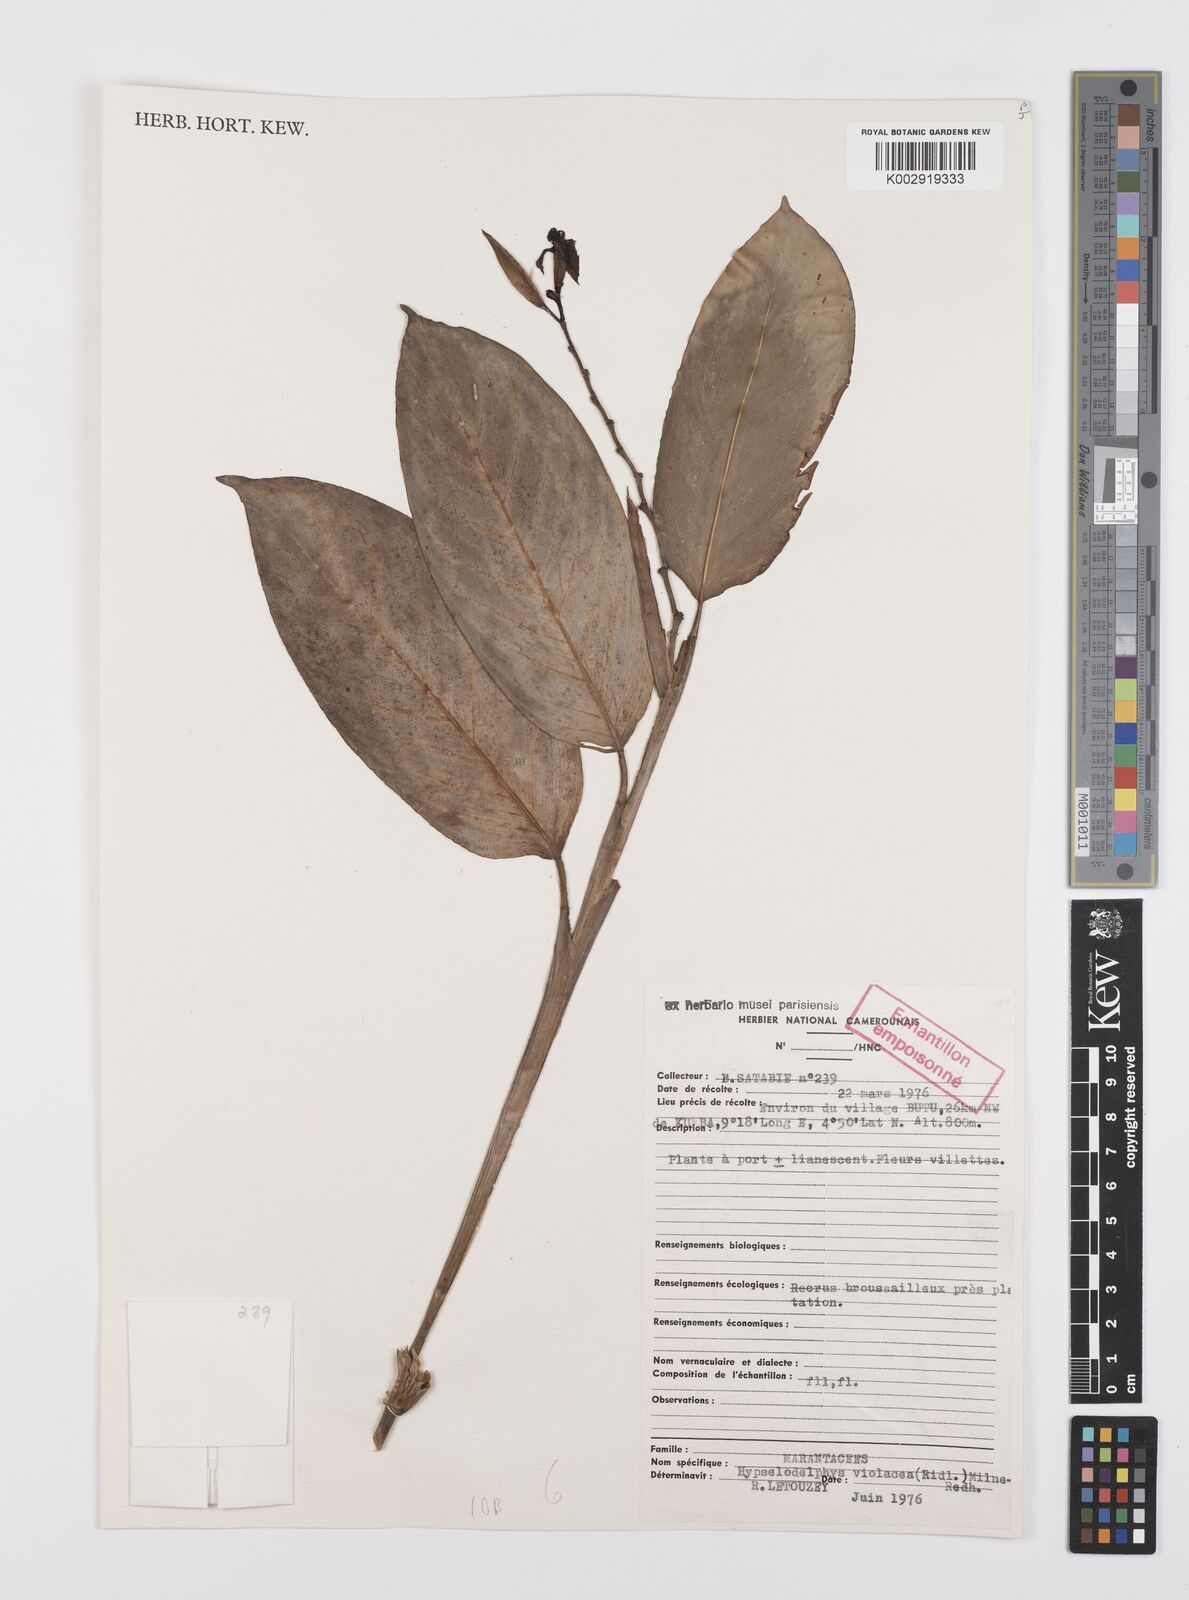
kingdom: Plantae
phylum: Tracheophyta
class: Liliopsida
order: Zingiberales
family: Marantaceae
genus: Hypselodelphys
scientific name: Hypselodelphys violacea
